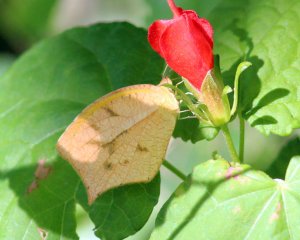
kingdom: Animalia
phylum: Arthropoda
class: Insecta
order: Lepidoptera
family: Pieridae
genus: Pyrisitia
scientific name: Pyrisitia proterpia
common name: Tailed Orange
